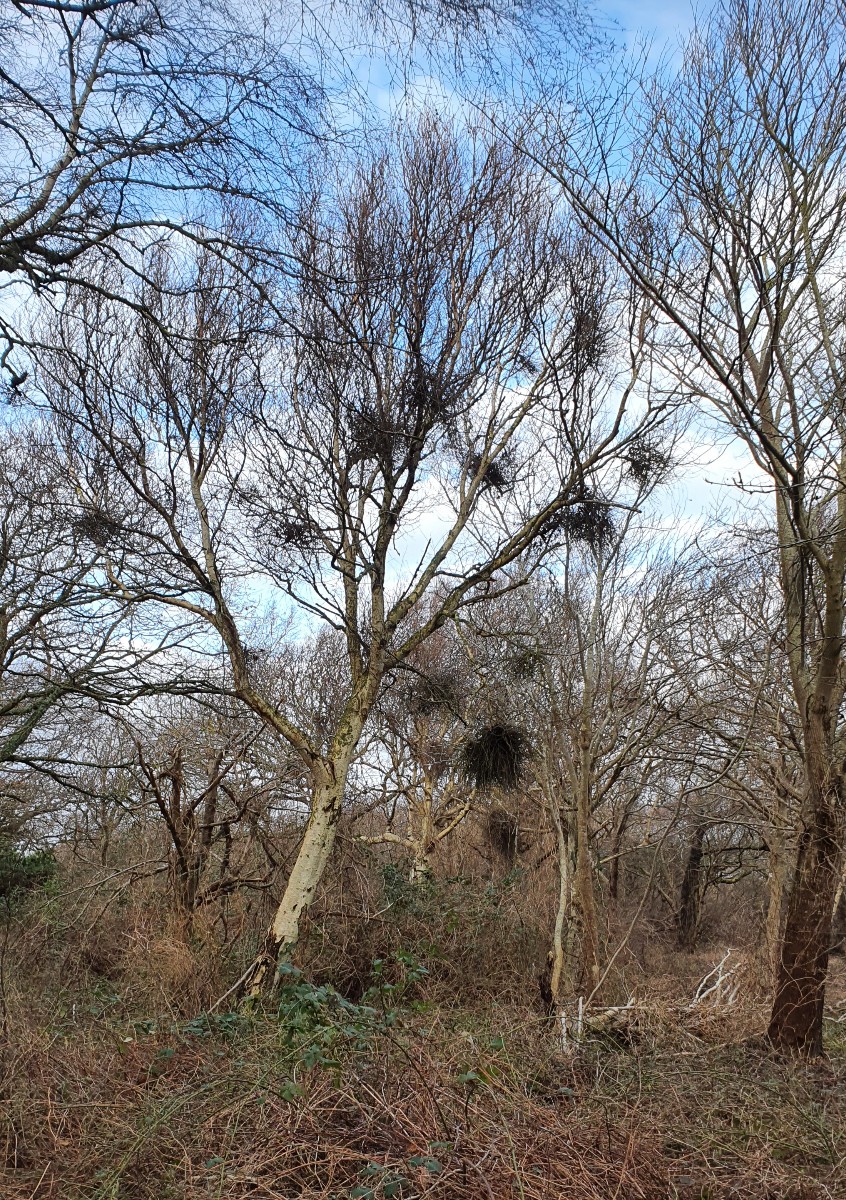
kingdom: Fungi
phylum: Ascomycota
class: Taphrinomycetes
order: Taphrinales
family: Taphrinaceae
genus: Taphrina
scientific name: Taphrina betulina
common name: hekse-sækdug
